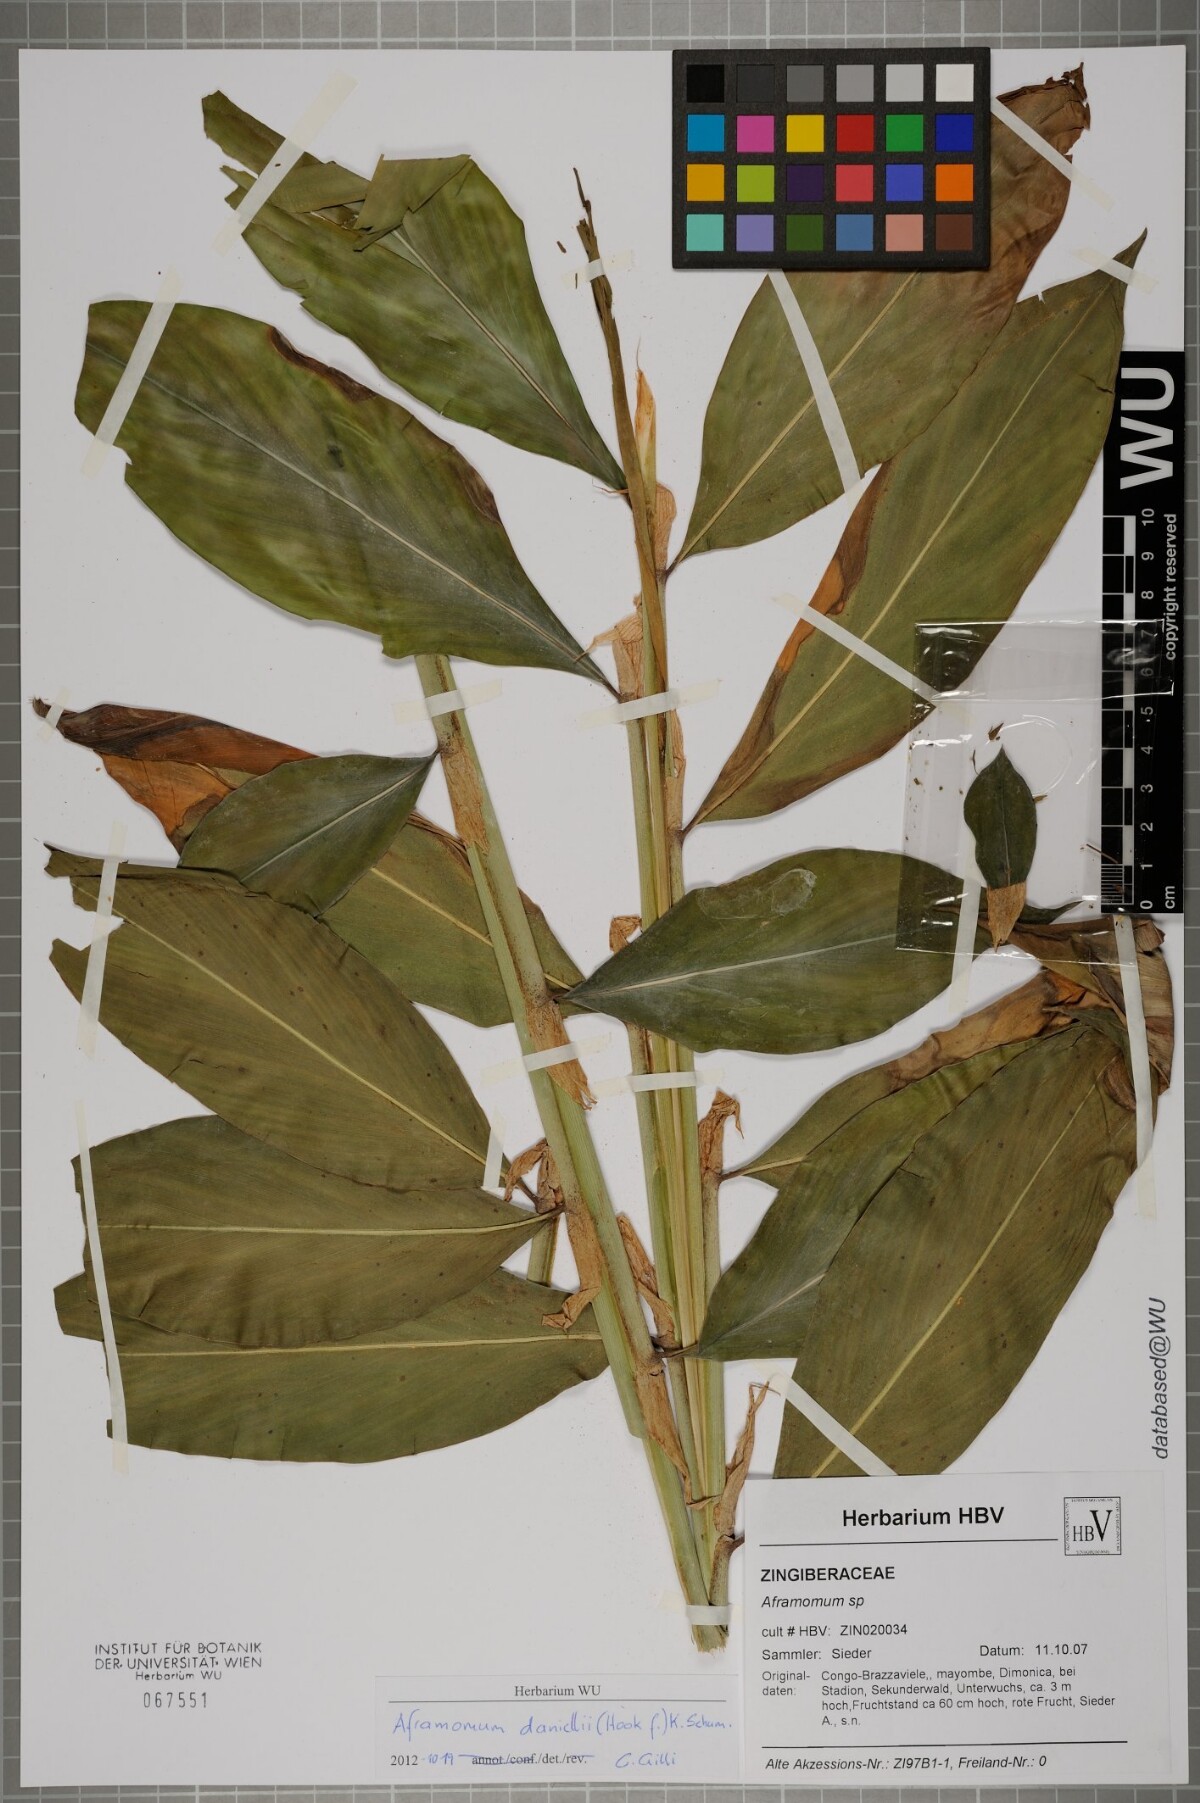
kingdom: Plantae
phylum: Tracheophyta
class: Liliopsida
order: Zingiberales
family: Zingiberaceae
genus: Aframomum
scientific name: Aframomum
